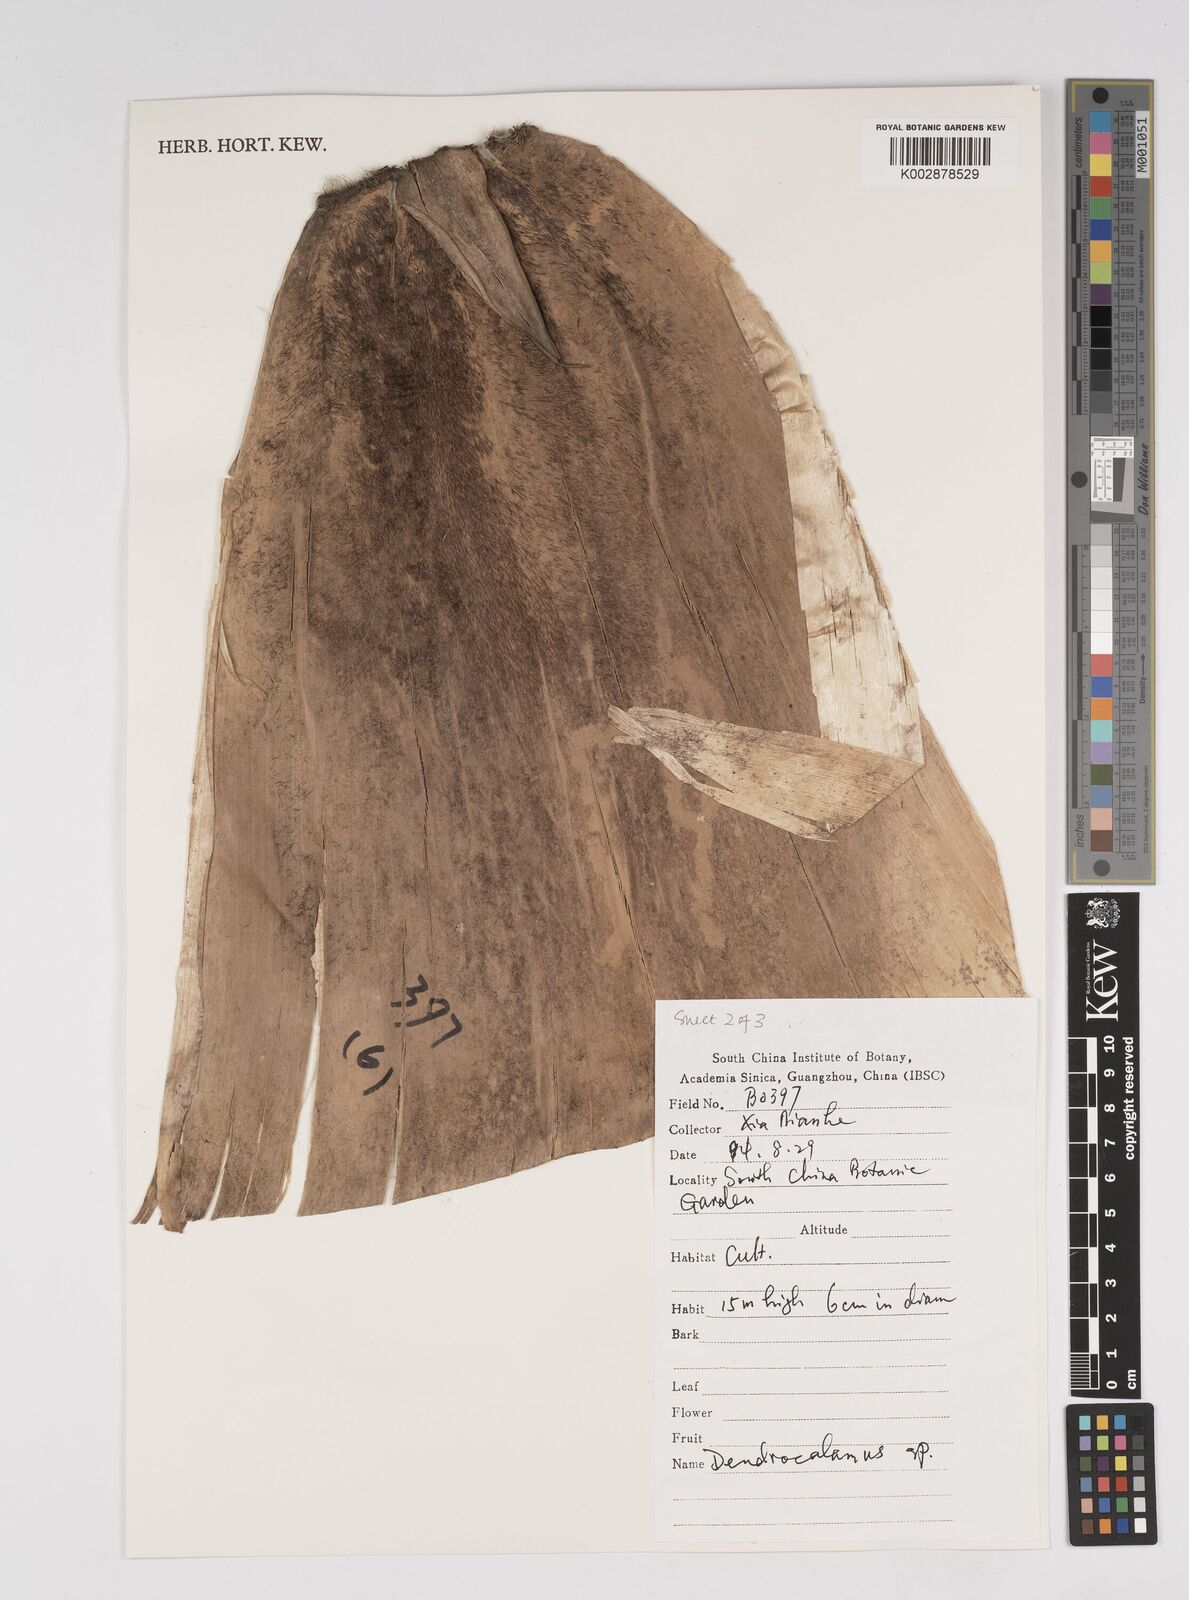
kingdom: Plantae
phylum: Tracheophyta
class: Liliopsida
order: Poales
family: Poaceae
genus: Dendrocalamus
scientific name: Dendrocalamus
